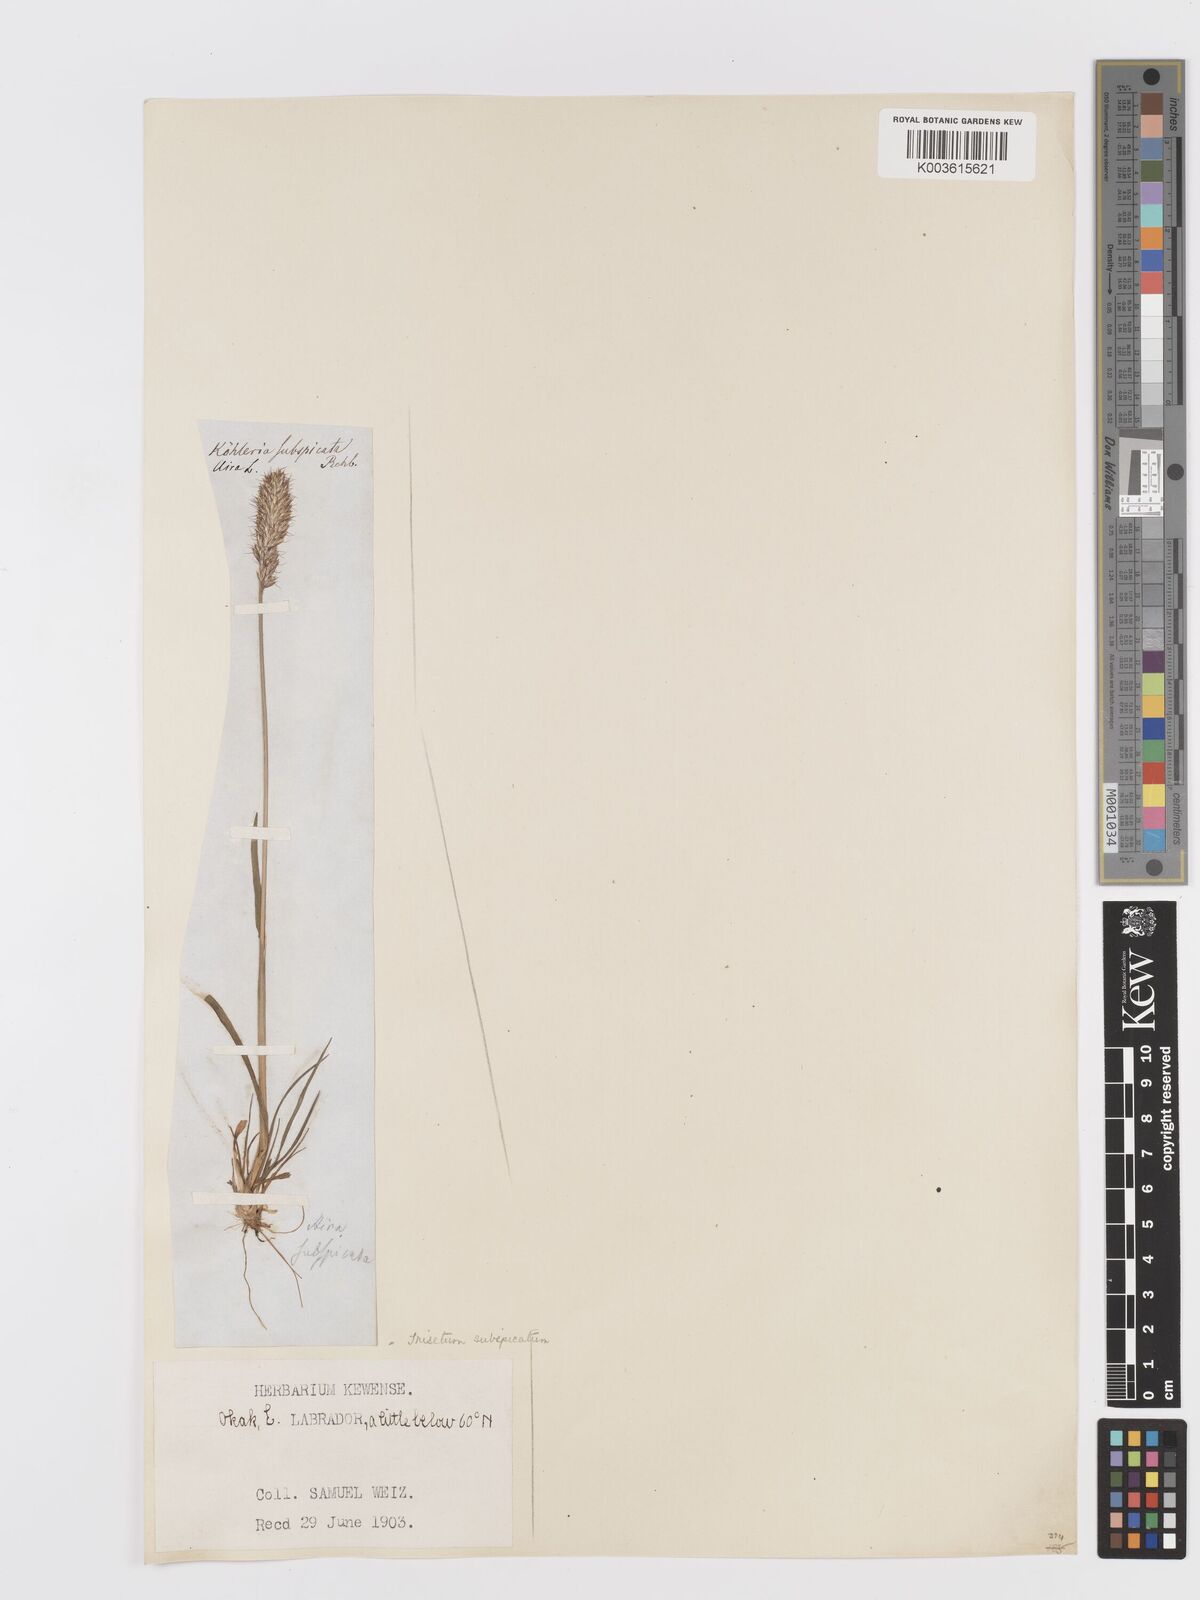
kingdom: Plantae
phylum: Tracheophyta
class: Liliopsida
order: Poales
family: Poaceae
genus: Koeleria
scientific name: Koeleria spicata
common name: Mountain trisetum
